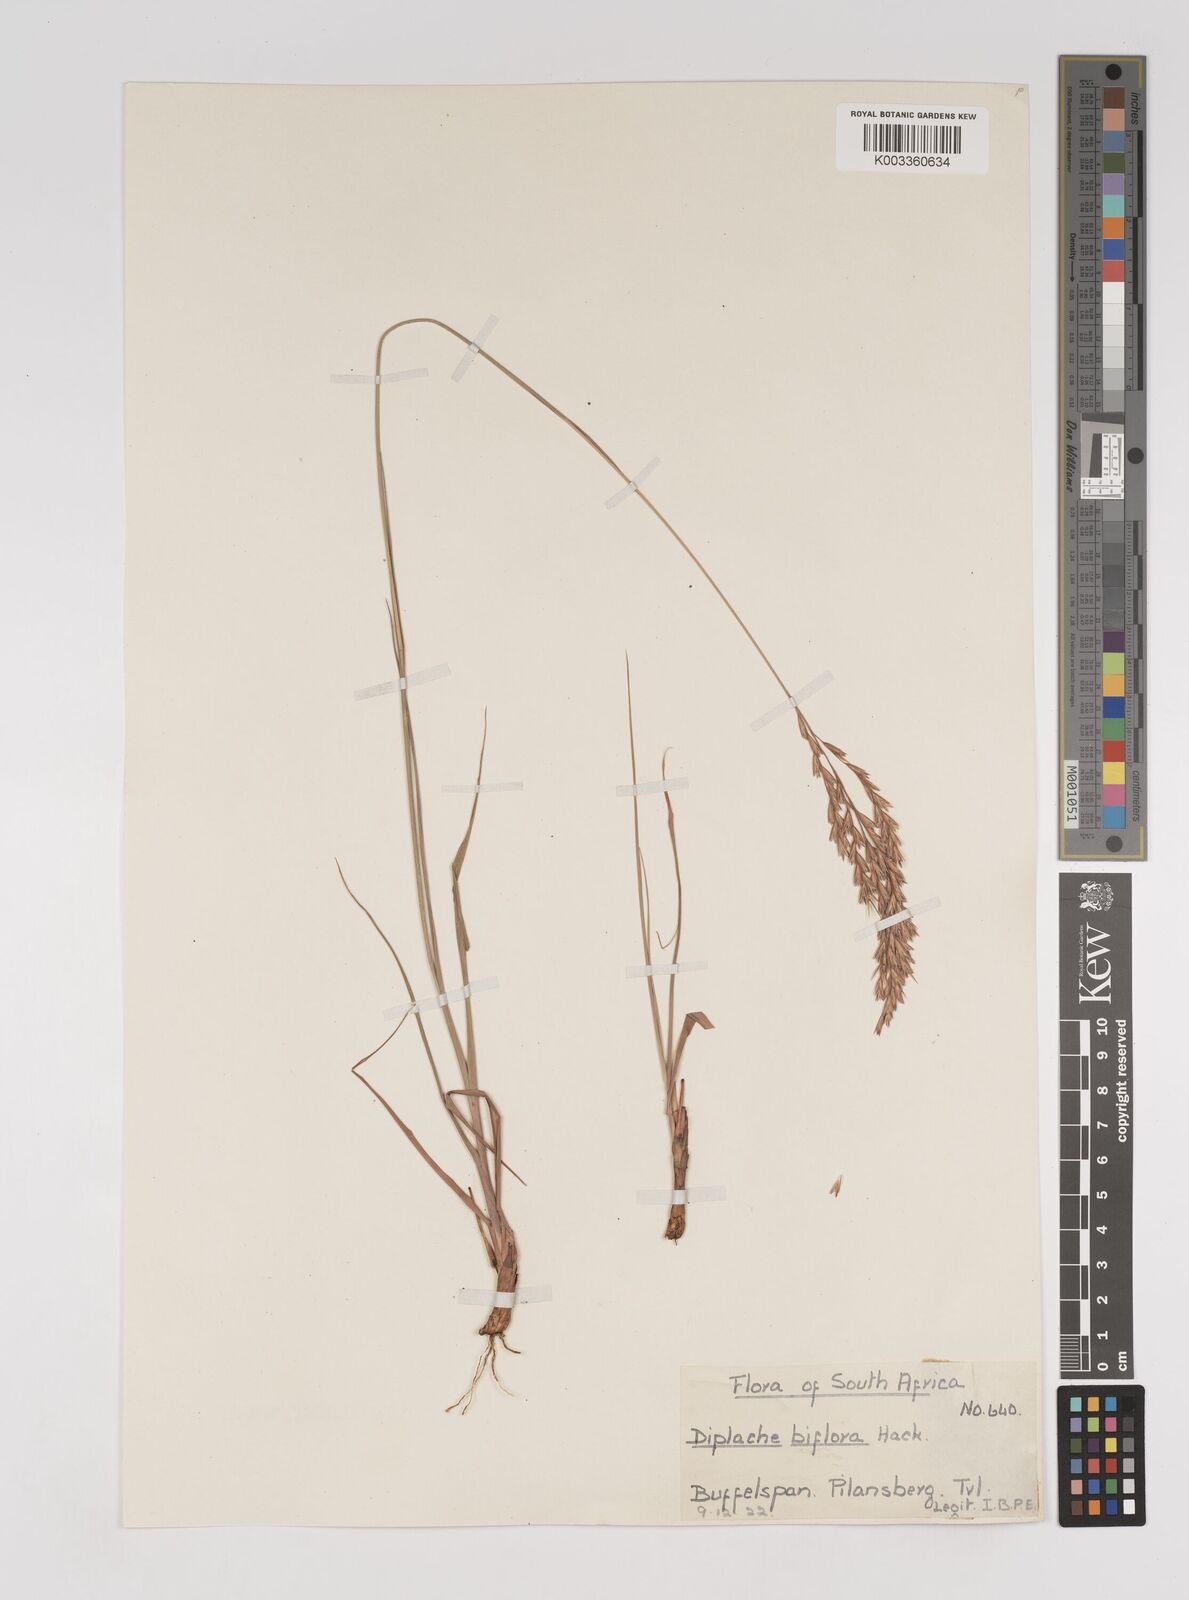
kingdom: Plantae
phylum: Tracheophyta
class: Liliopsida
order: Poales
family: Poaceae
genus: Bewsia
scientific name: Bewsia biflora
